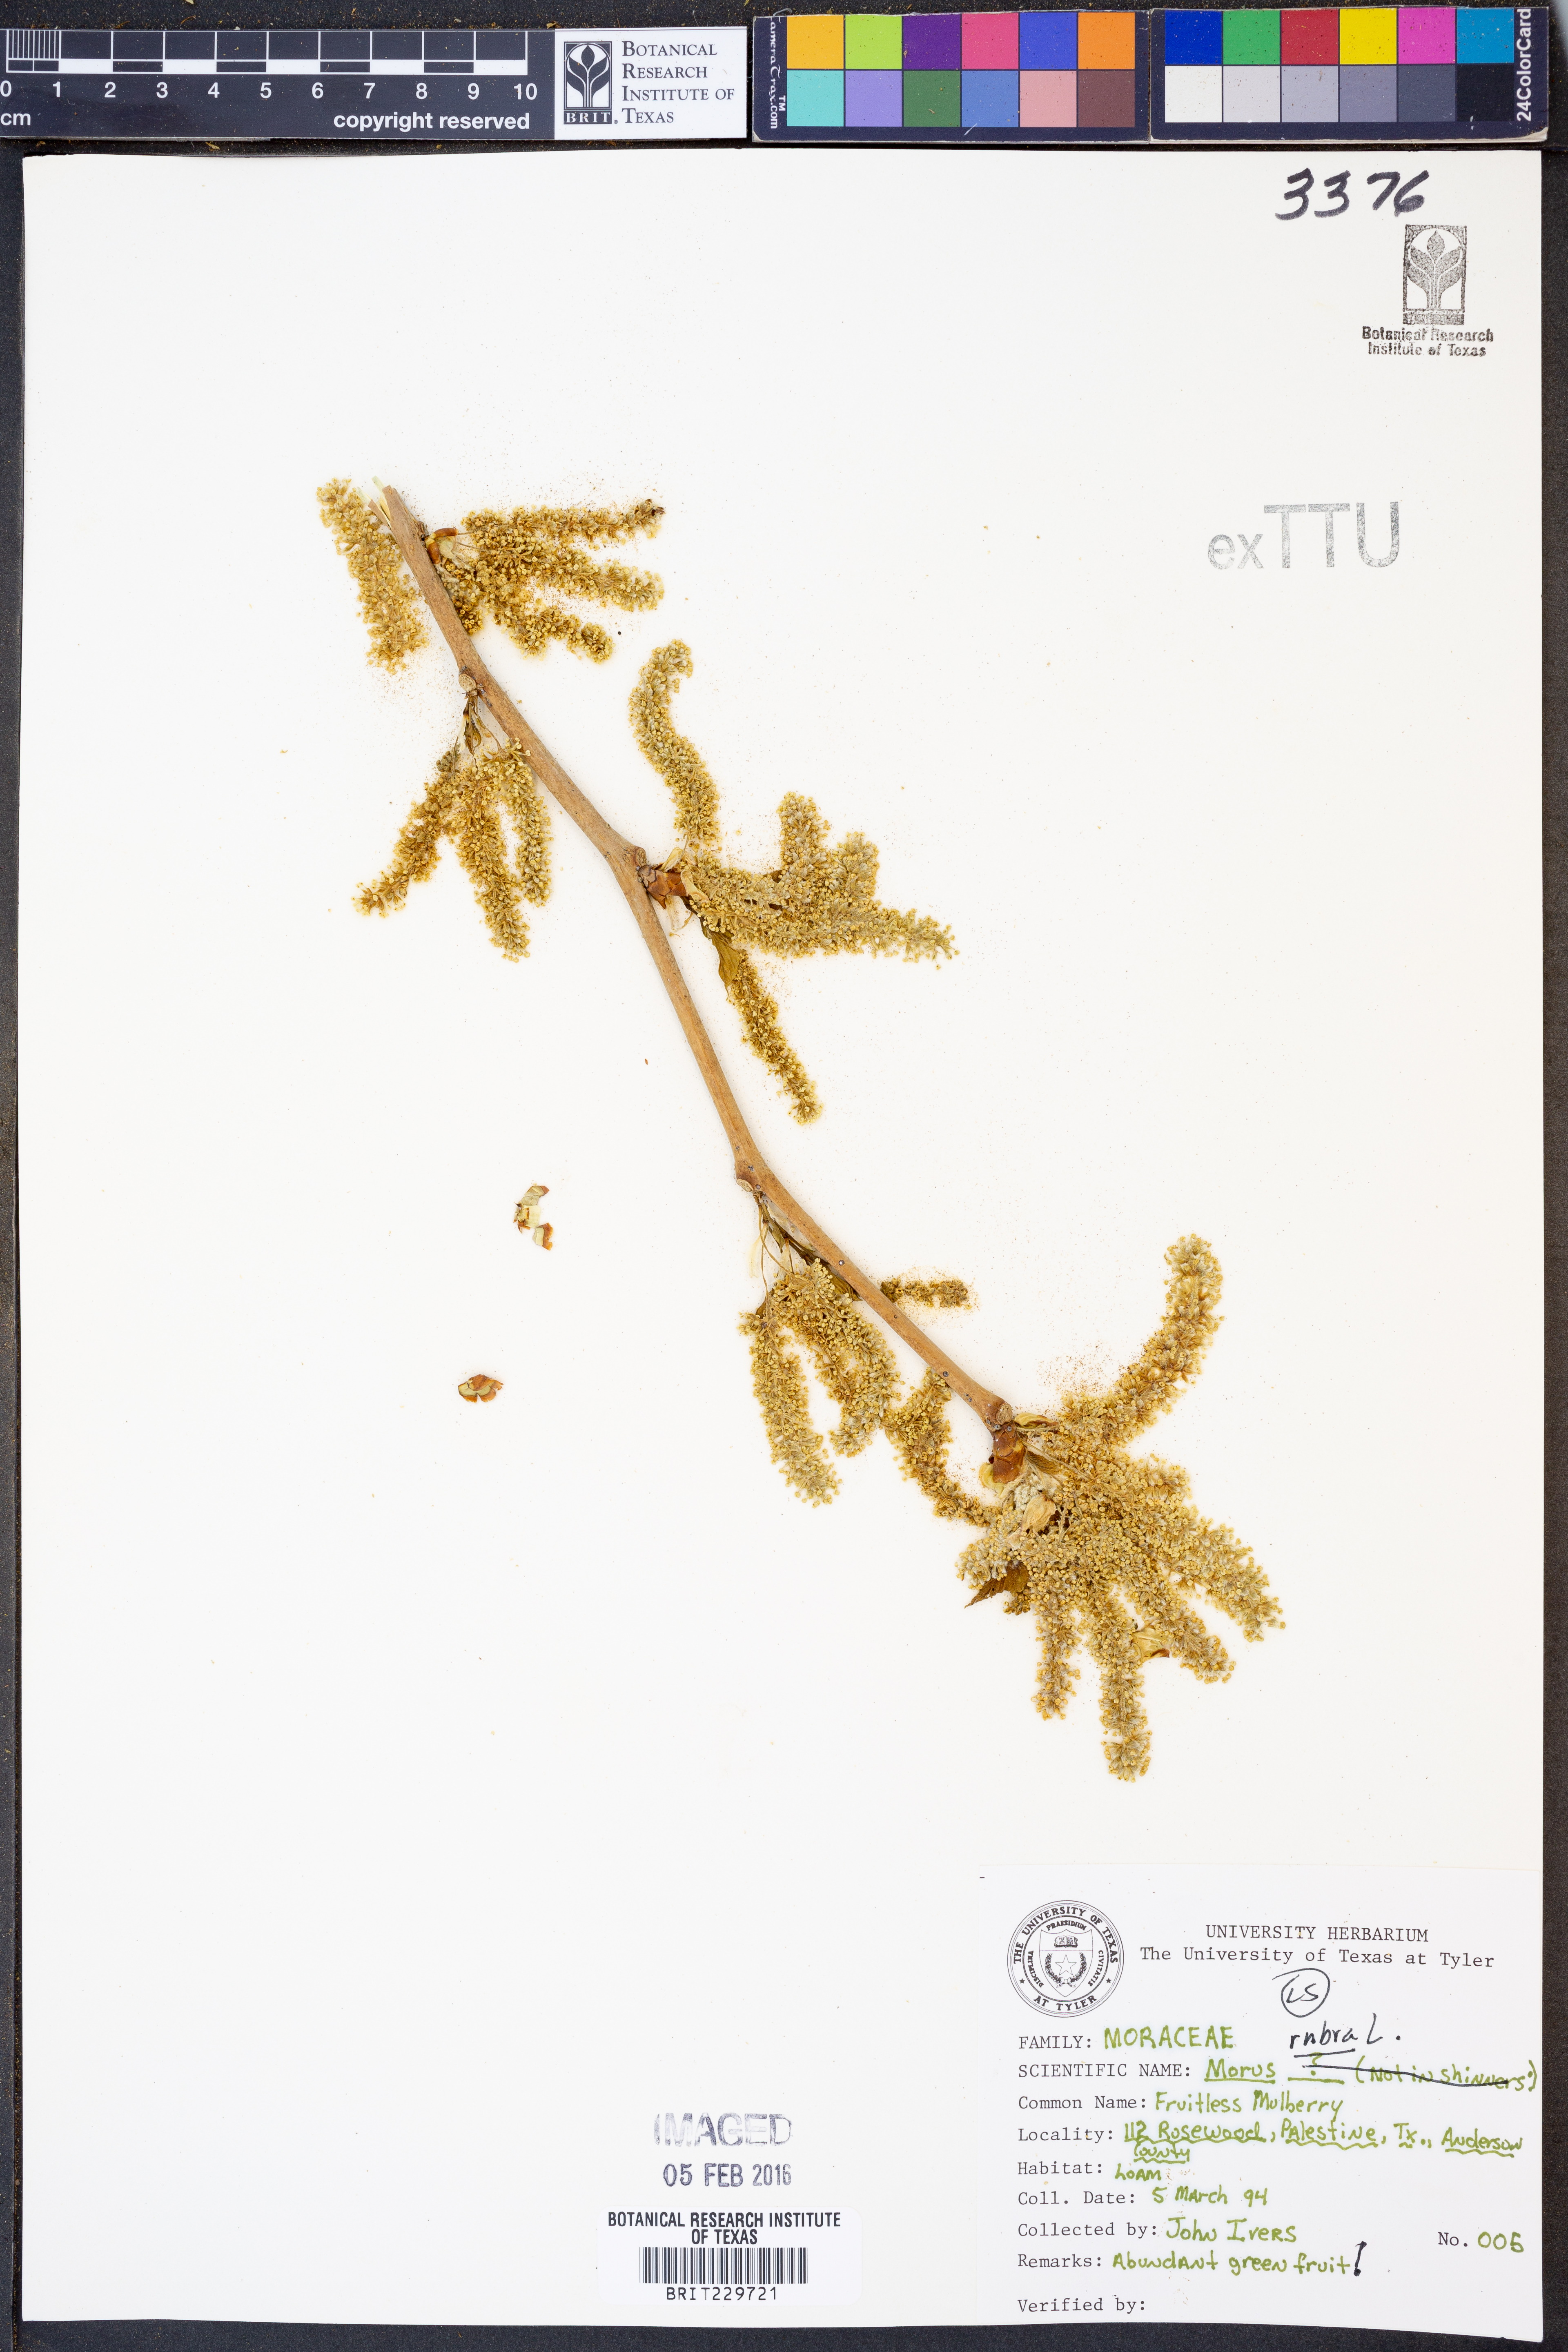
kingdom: Plantae
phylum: Tracheophyta
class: Magnoliopsida
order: Rosales
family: Moraceae
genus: Morus
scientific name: Morus rubra
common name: Red mulberry
